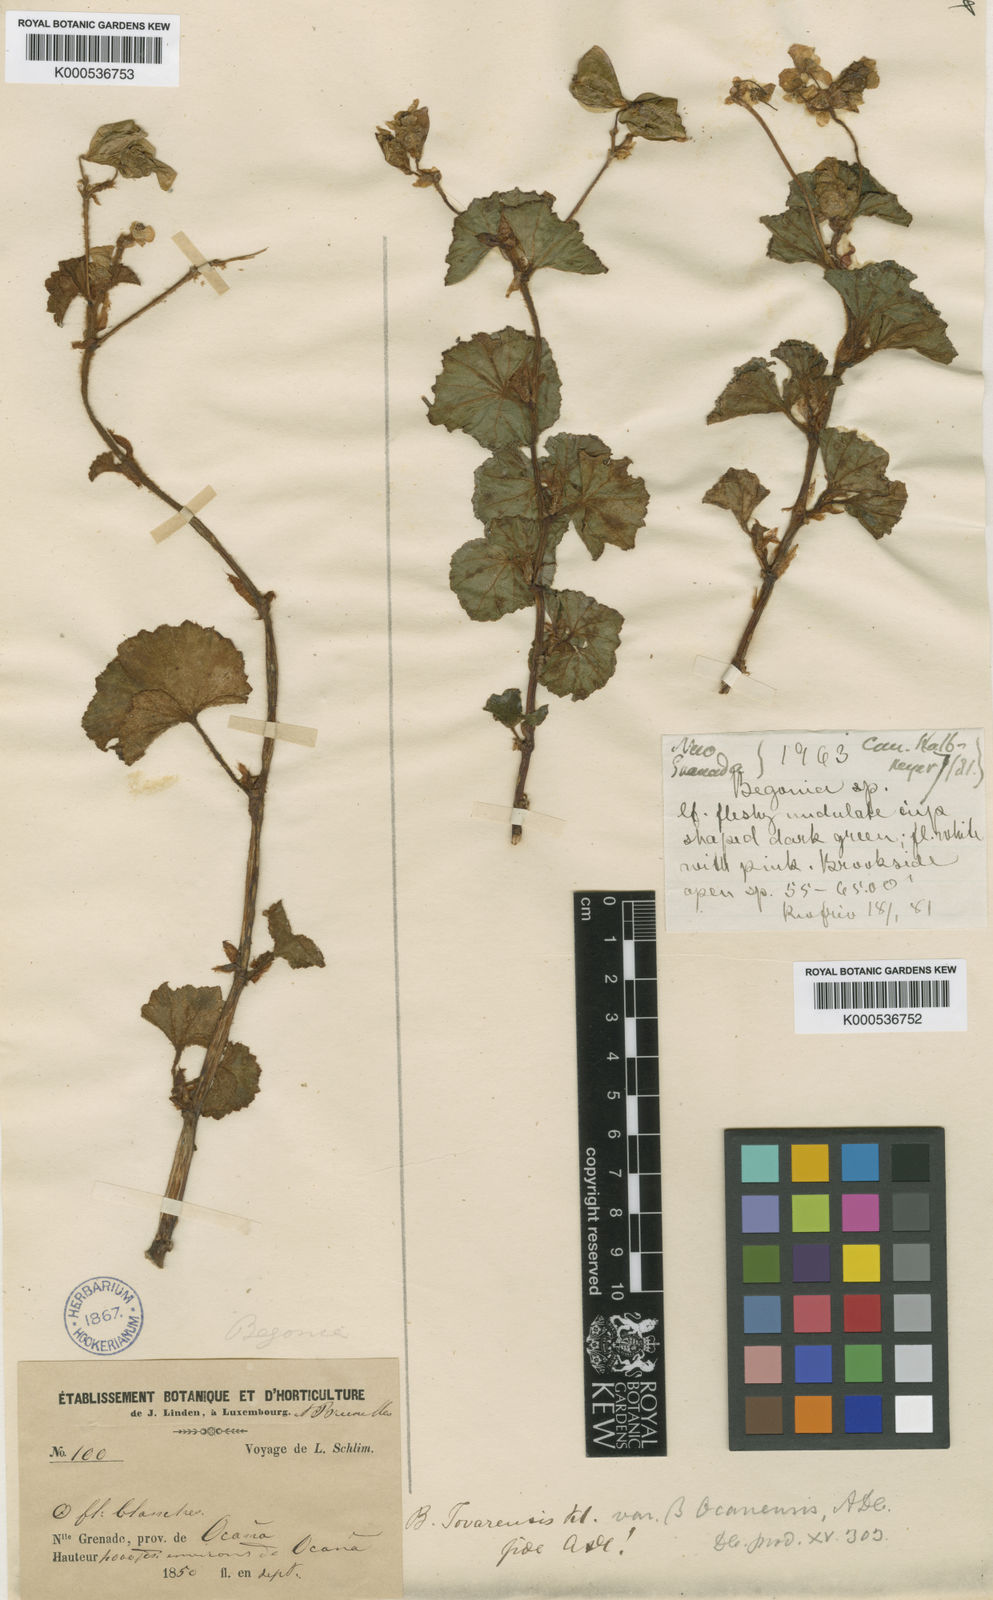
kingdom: Plantae
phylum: Tracheophyta
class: Magnoliopsida
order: Cucurbitales
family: Begoniaceae
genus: Begonia
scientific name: Begonia fischeri
